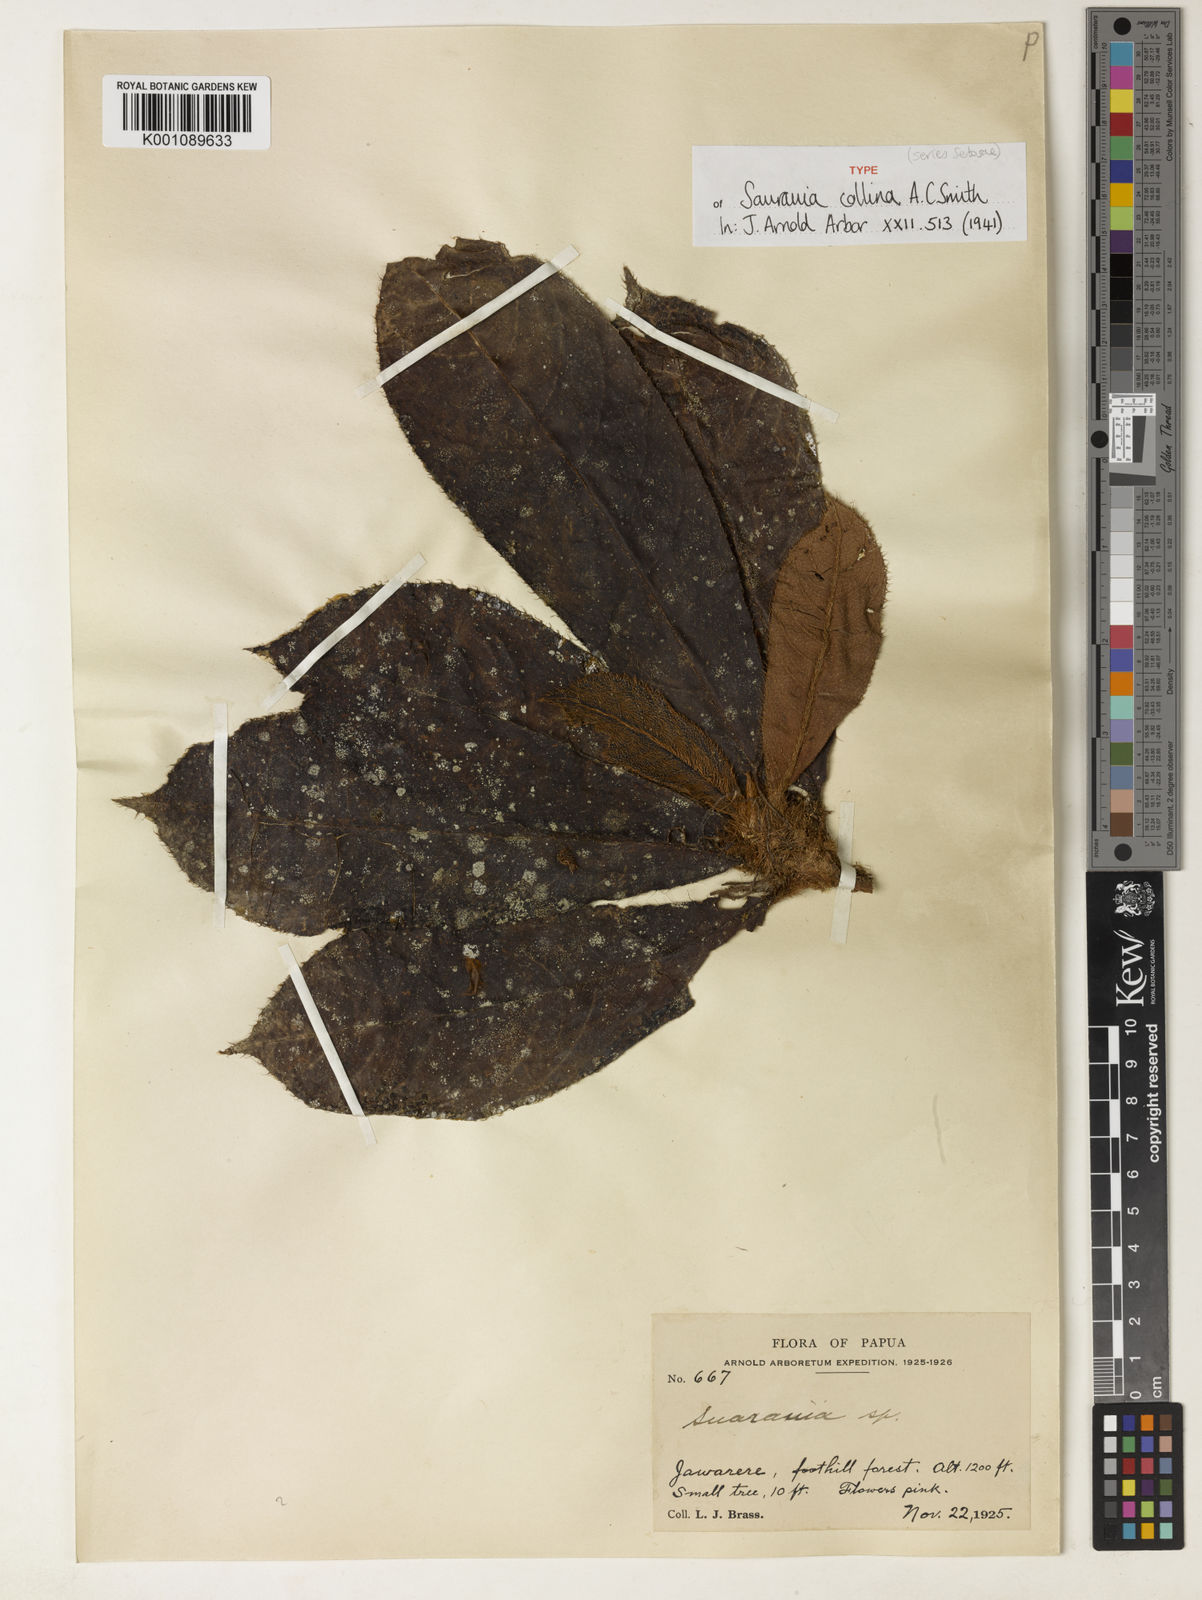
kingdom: Plantae
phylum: Tracheophyta
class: Magnoliopsida
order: Ericales
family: Actinidiaceae
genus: Saurauia
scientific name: Saurauia collina
